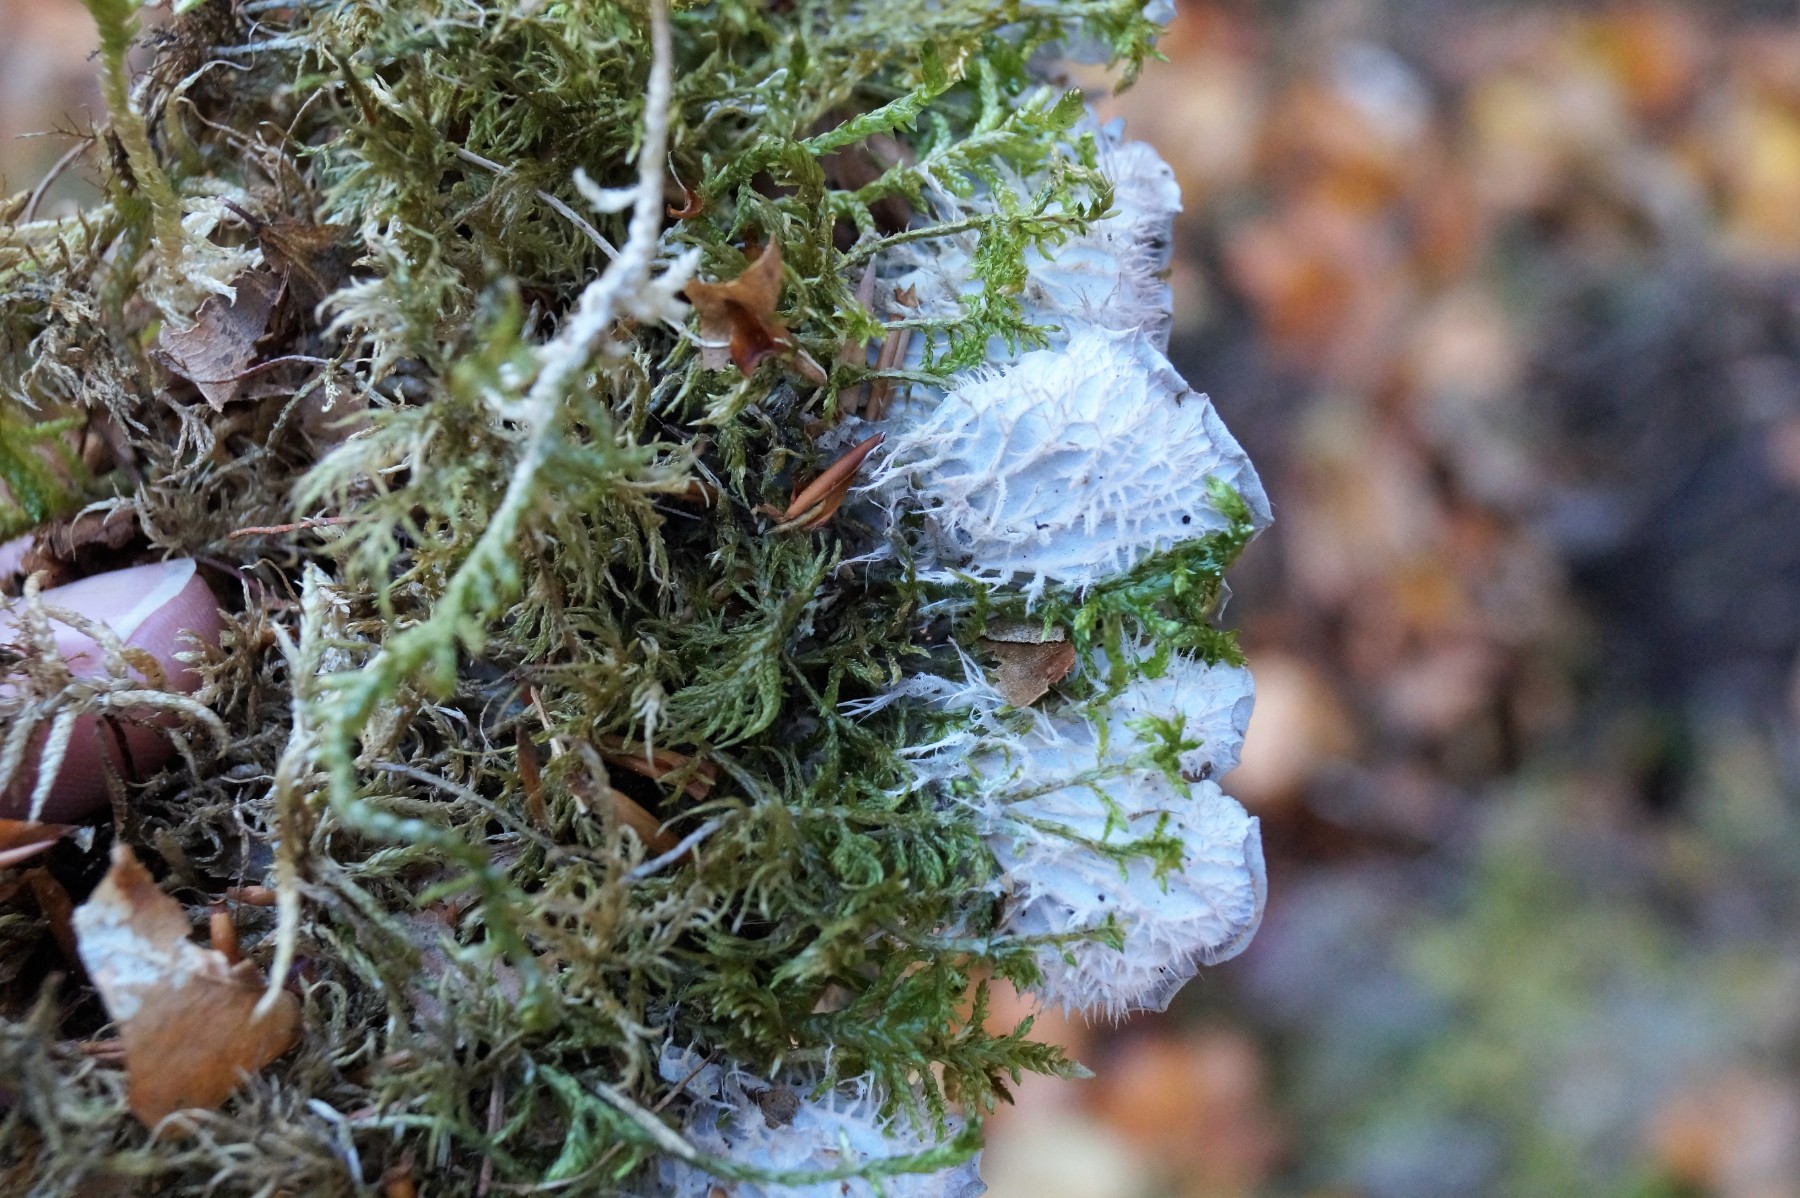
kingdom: Fungi
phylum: Ascomycota
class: Lecanoromycetes
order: Peltigerales
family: Peltigeraceae
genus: Peltigera
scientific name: Peltigera membranacea
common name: tynd skjoldlav
